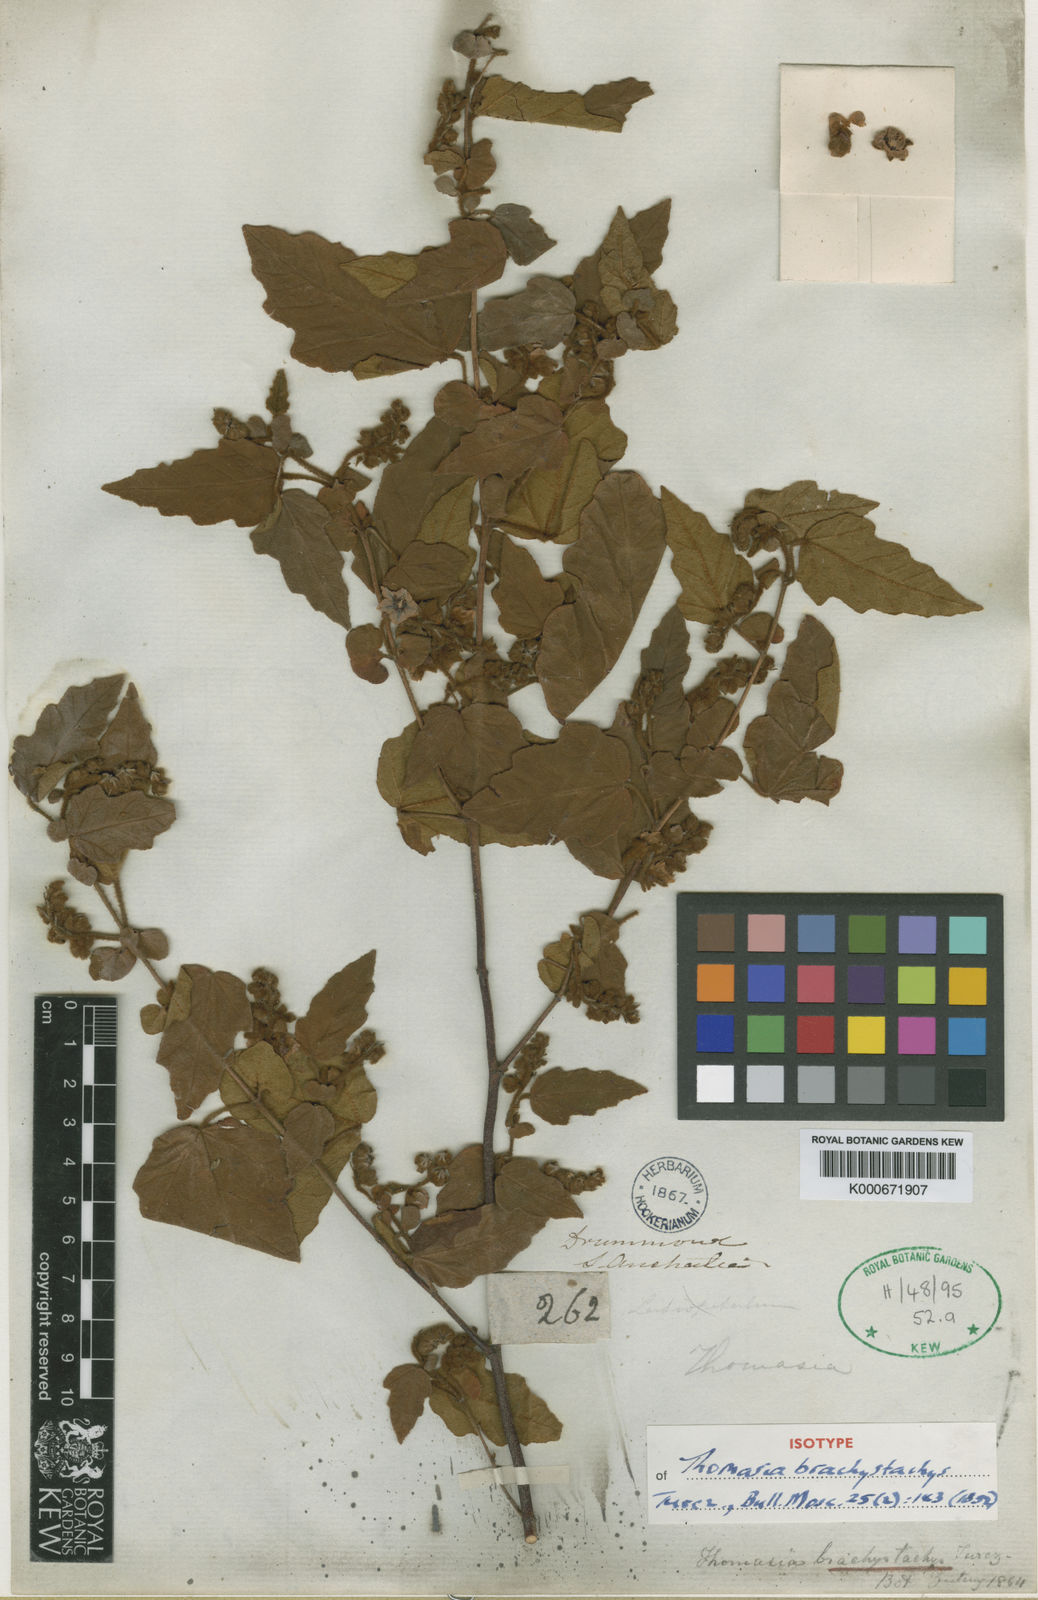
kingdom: Plantae
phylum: Tracheophyta
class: Magnoliopsida
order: Malvales
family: Malvaceae
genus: Thomasia
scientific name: Thomasia brachystachys
